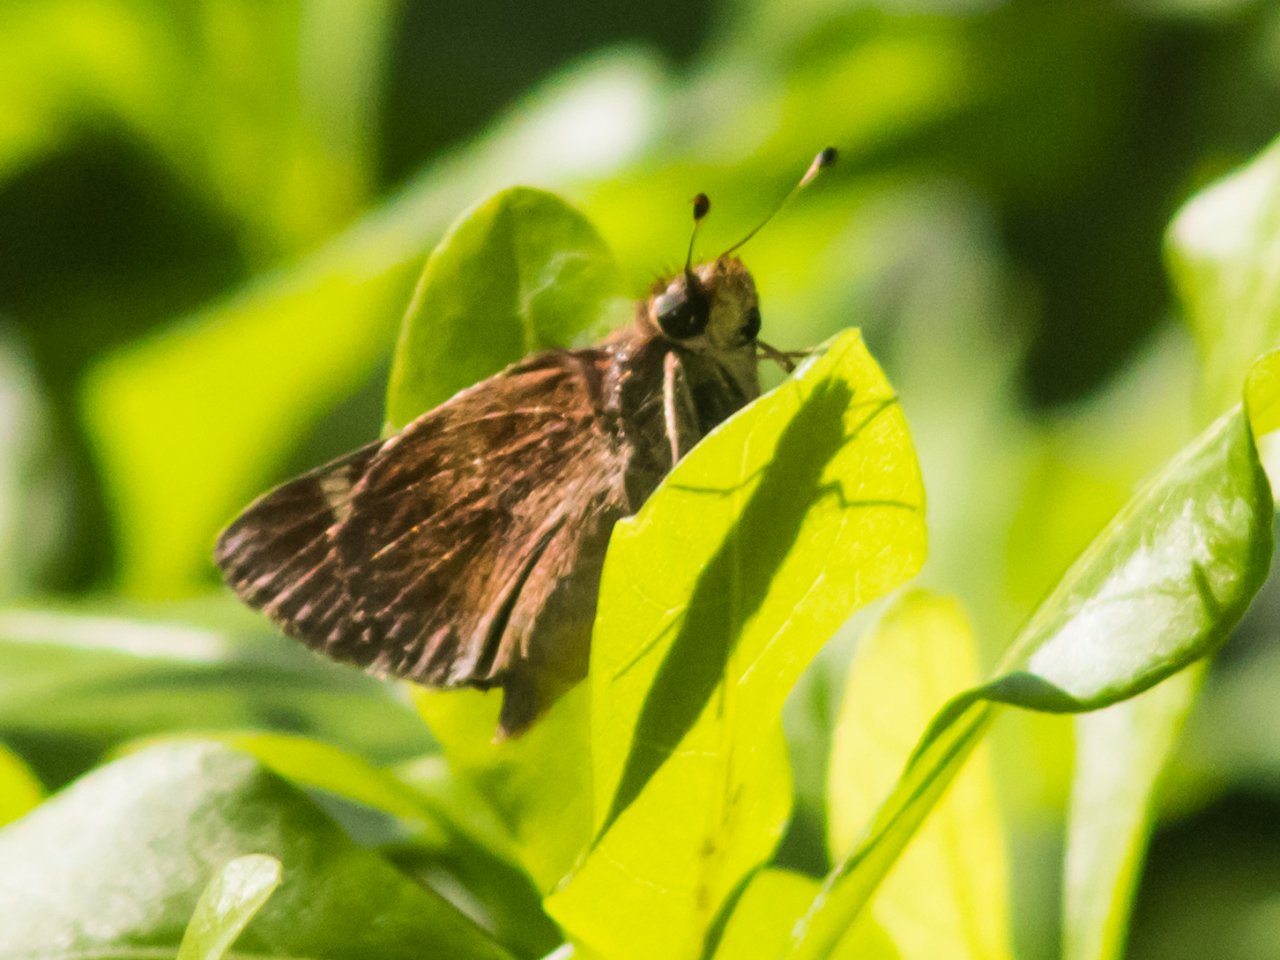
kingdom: Animalia
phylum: Arthropoda
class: Insecta
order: Lepidoptera
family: Hesperiidae
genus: Lon
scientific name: Lon melane
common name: Umber Skipper
